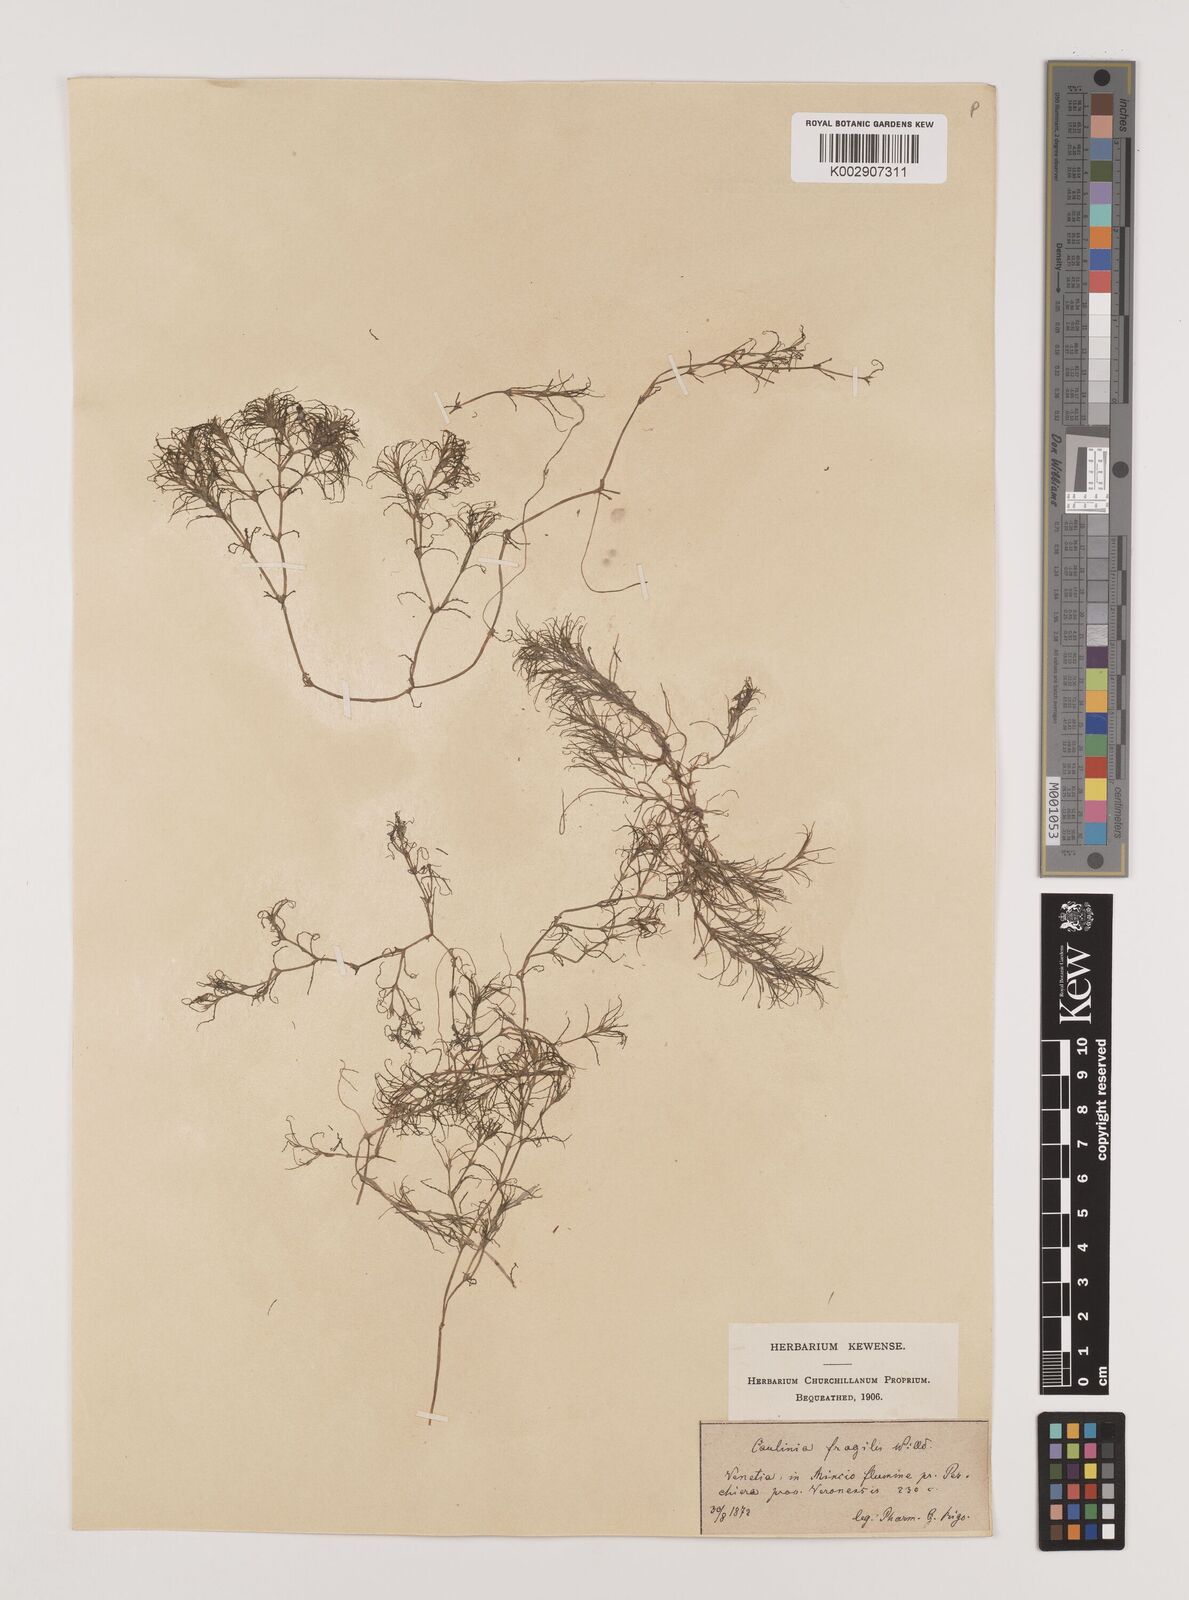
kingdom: Plantae
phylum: Tracheophyta
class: Liliopsida
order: Alismatales
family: Hydrocharitaceae
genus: Najas
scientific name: Najas minor
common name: Brittle naiad
